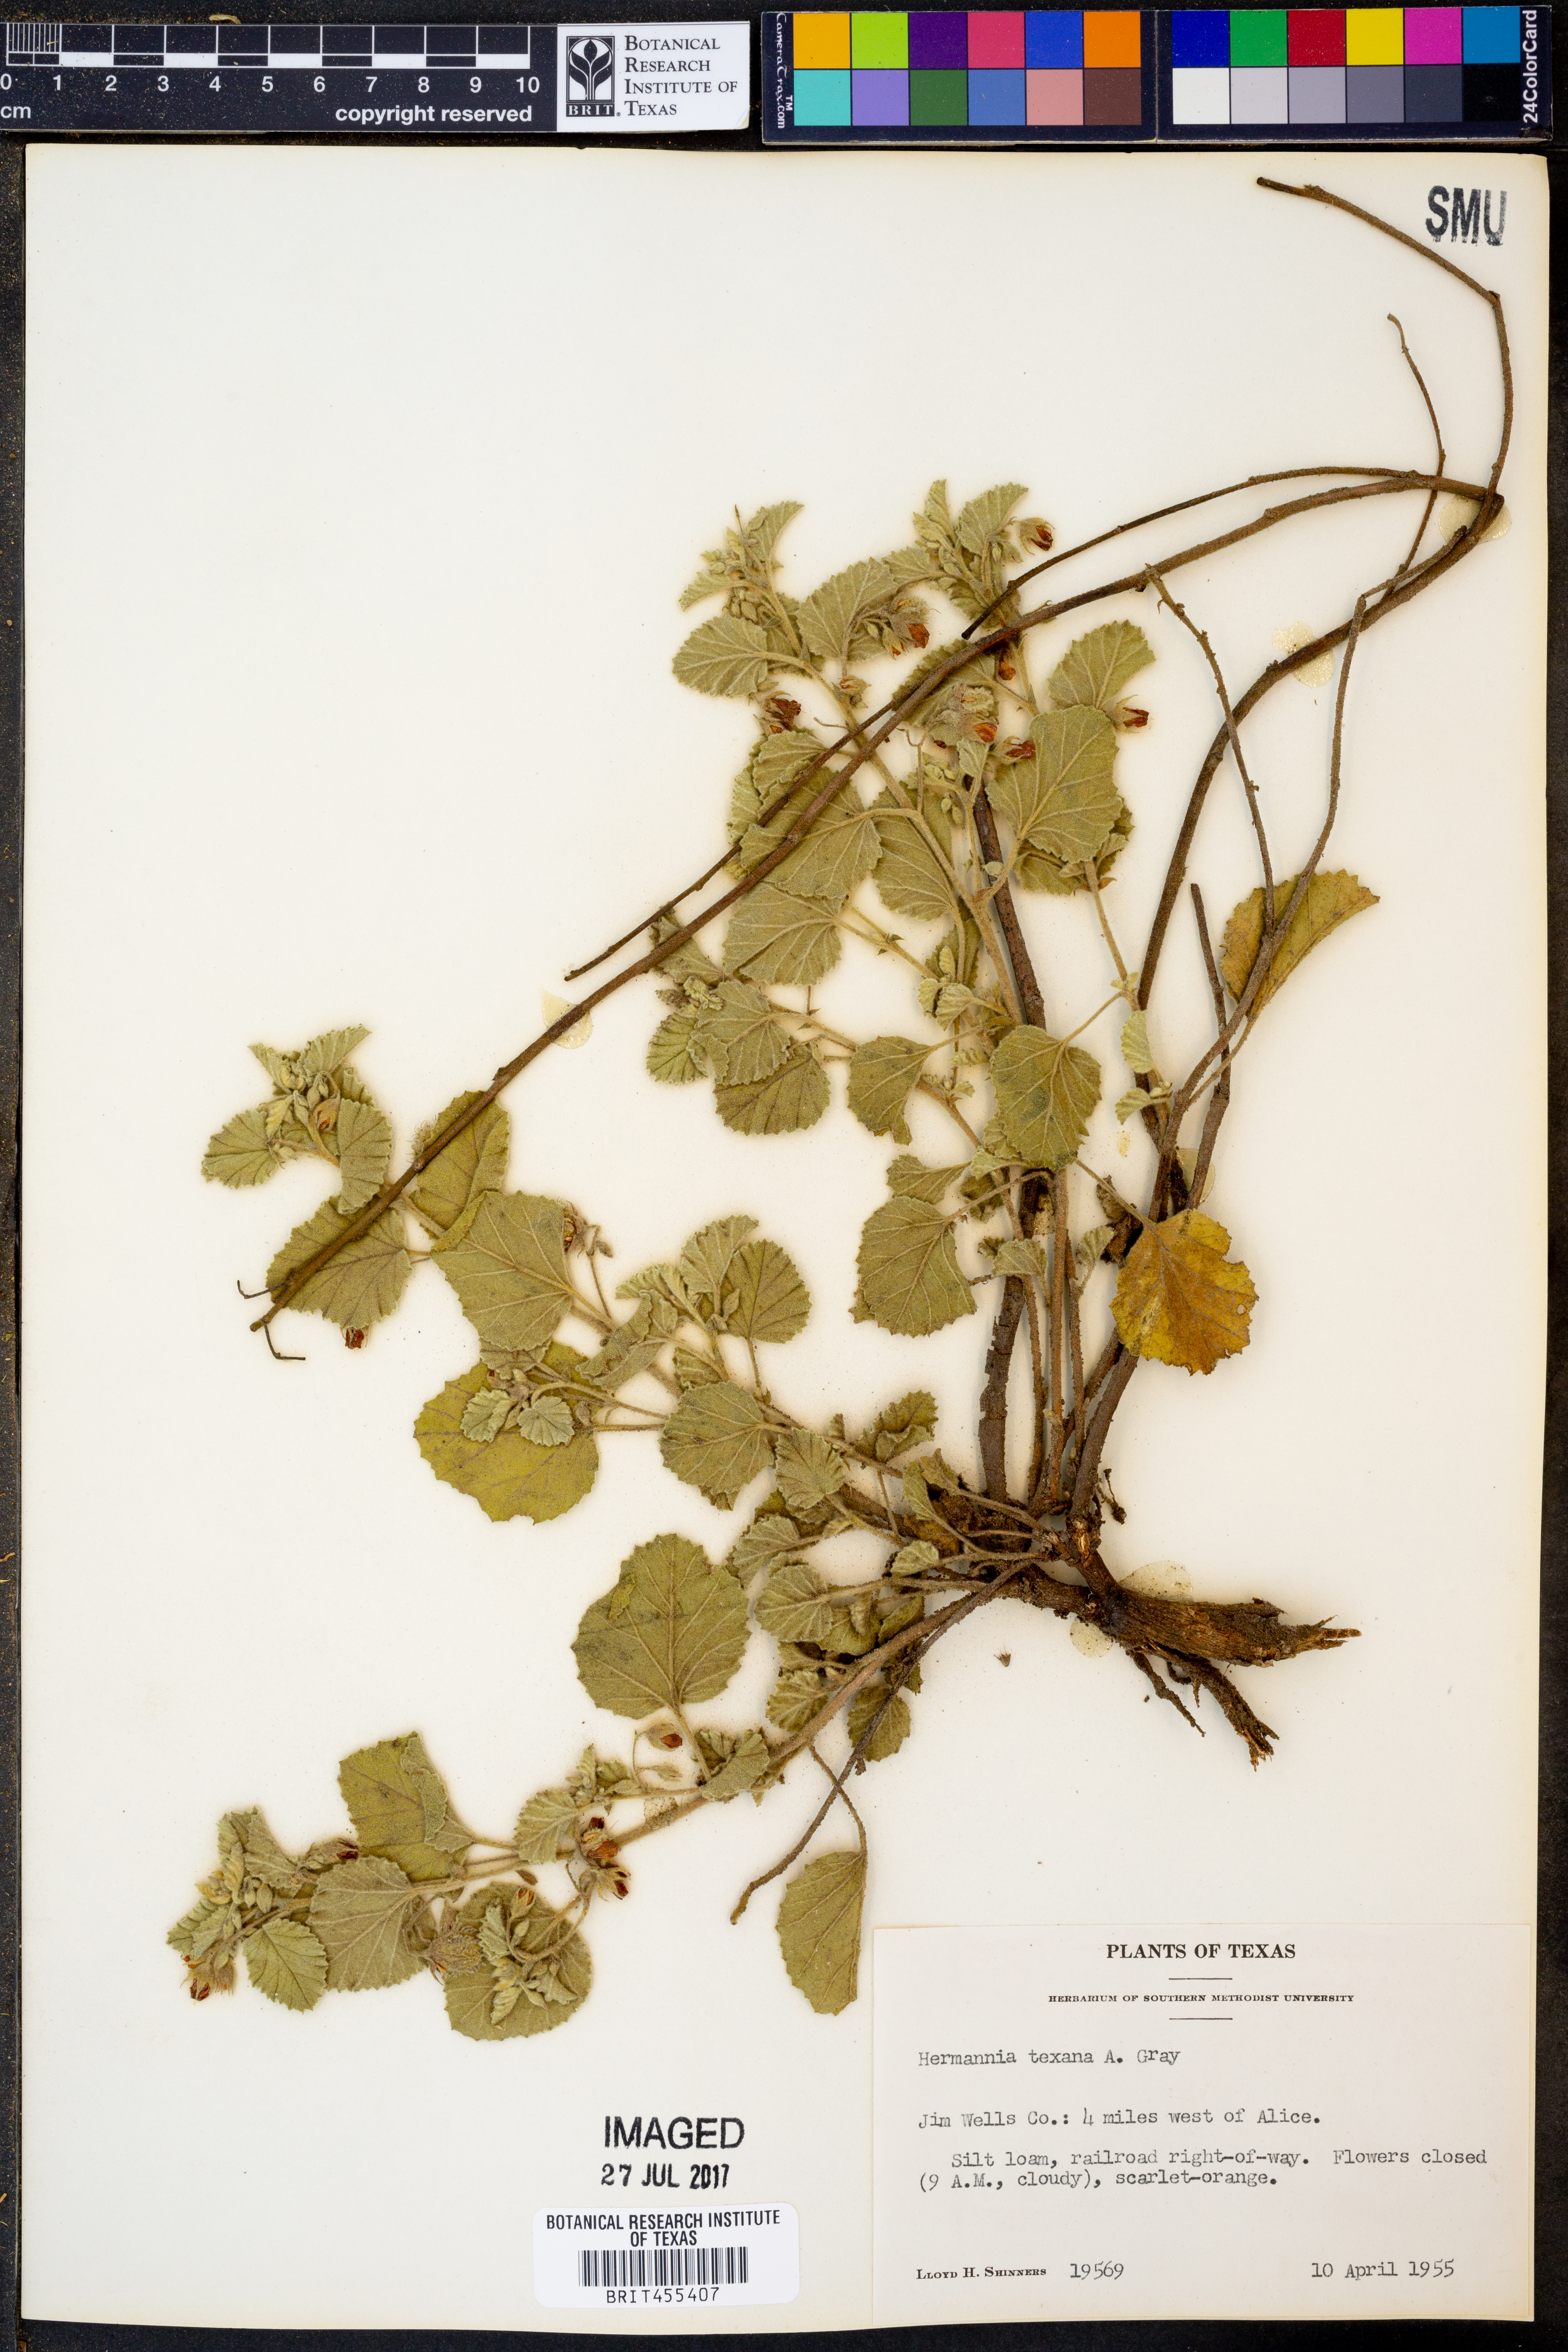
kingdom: Plantae
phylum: Tracheophyta
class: Magnoliopsida
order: Malvales
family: Malvaceae
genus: Hermannia
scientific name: Hermannia texana
